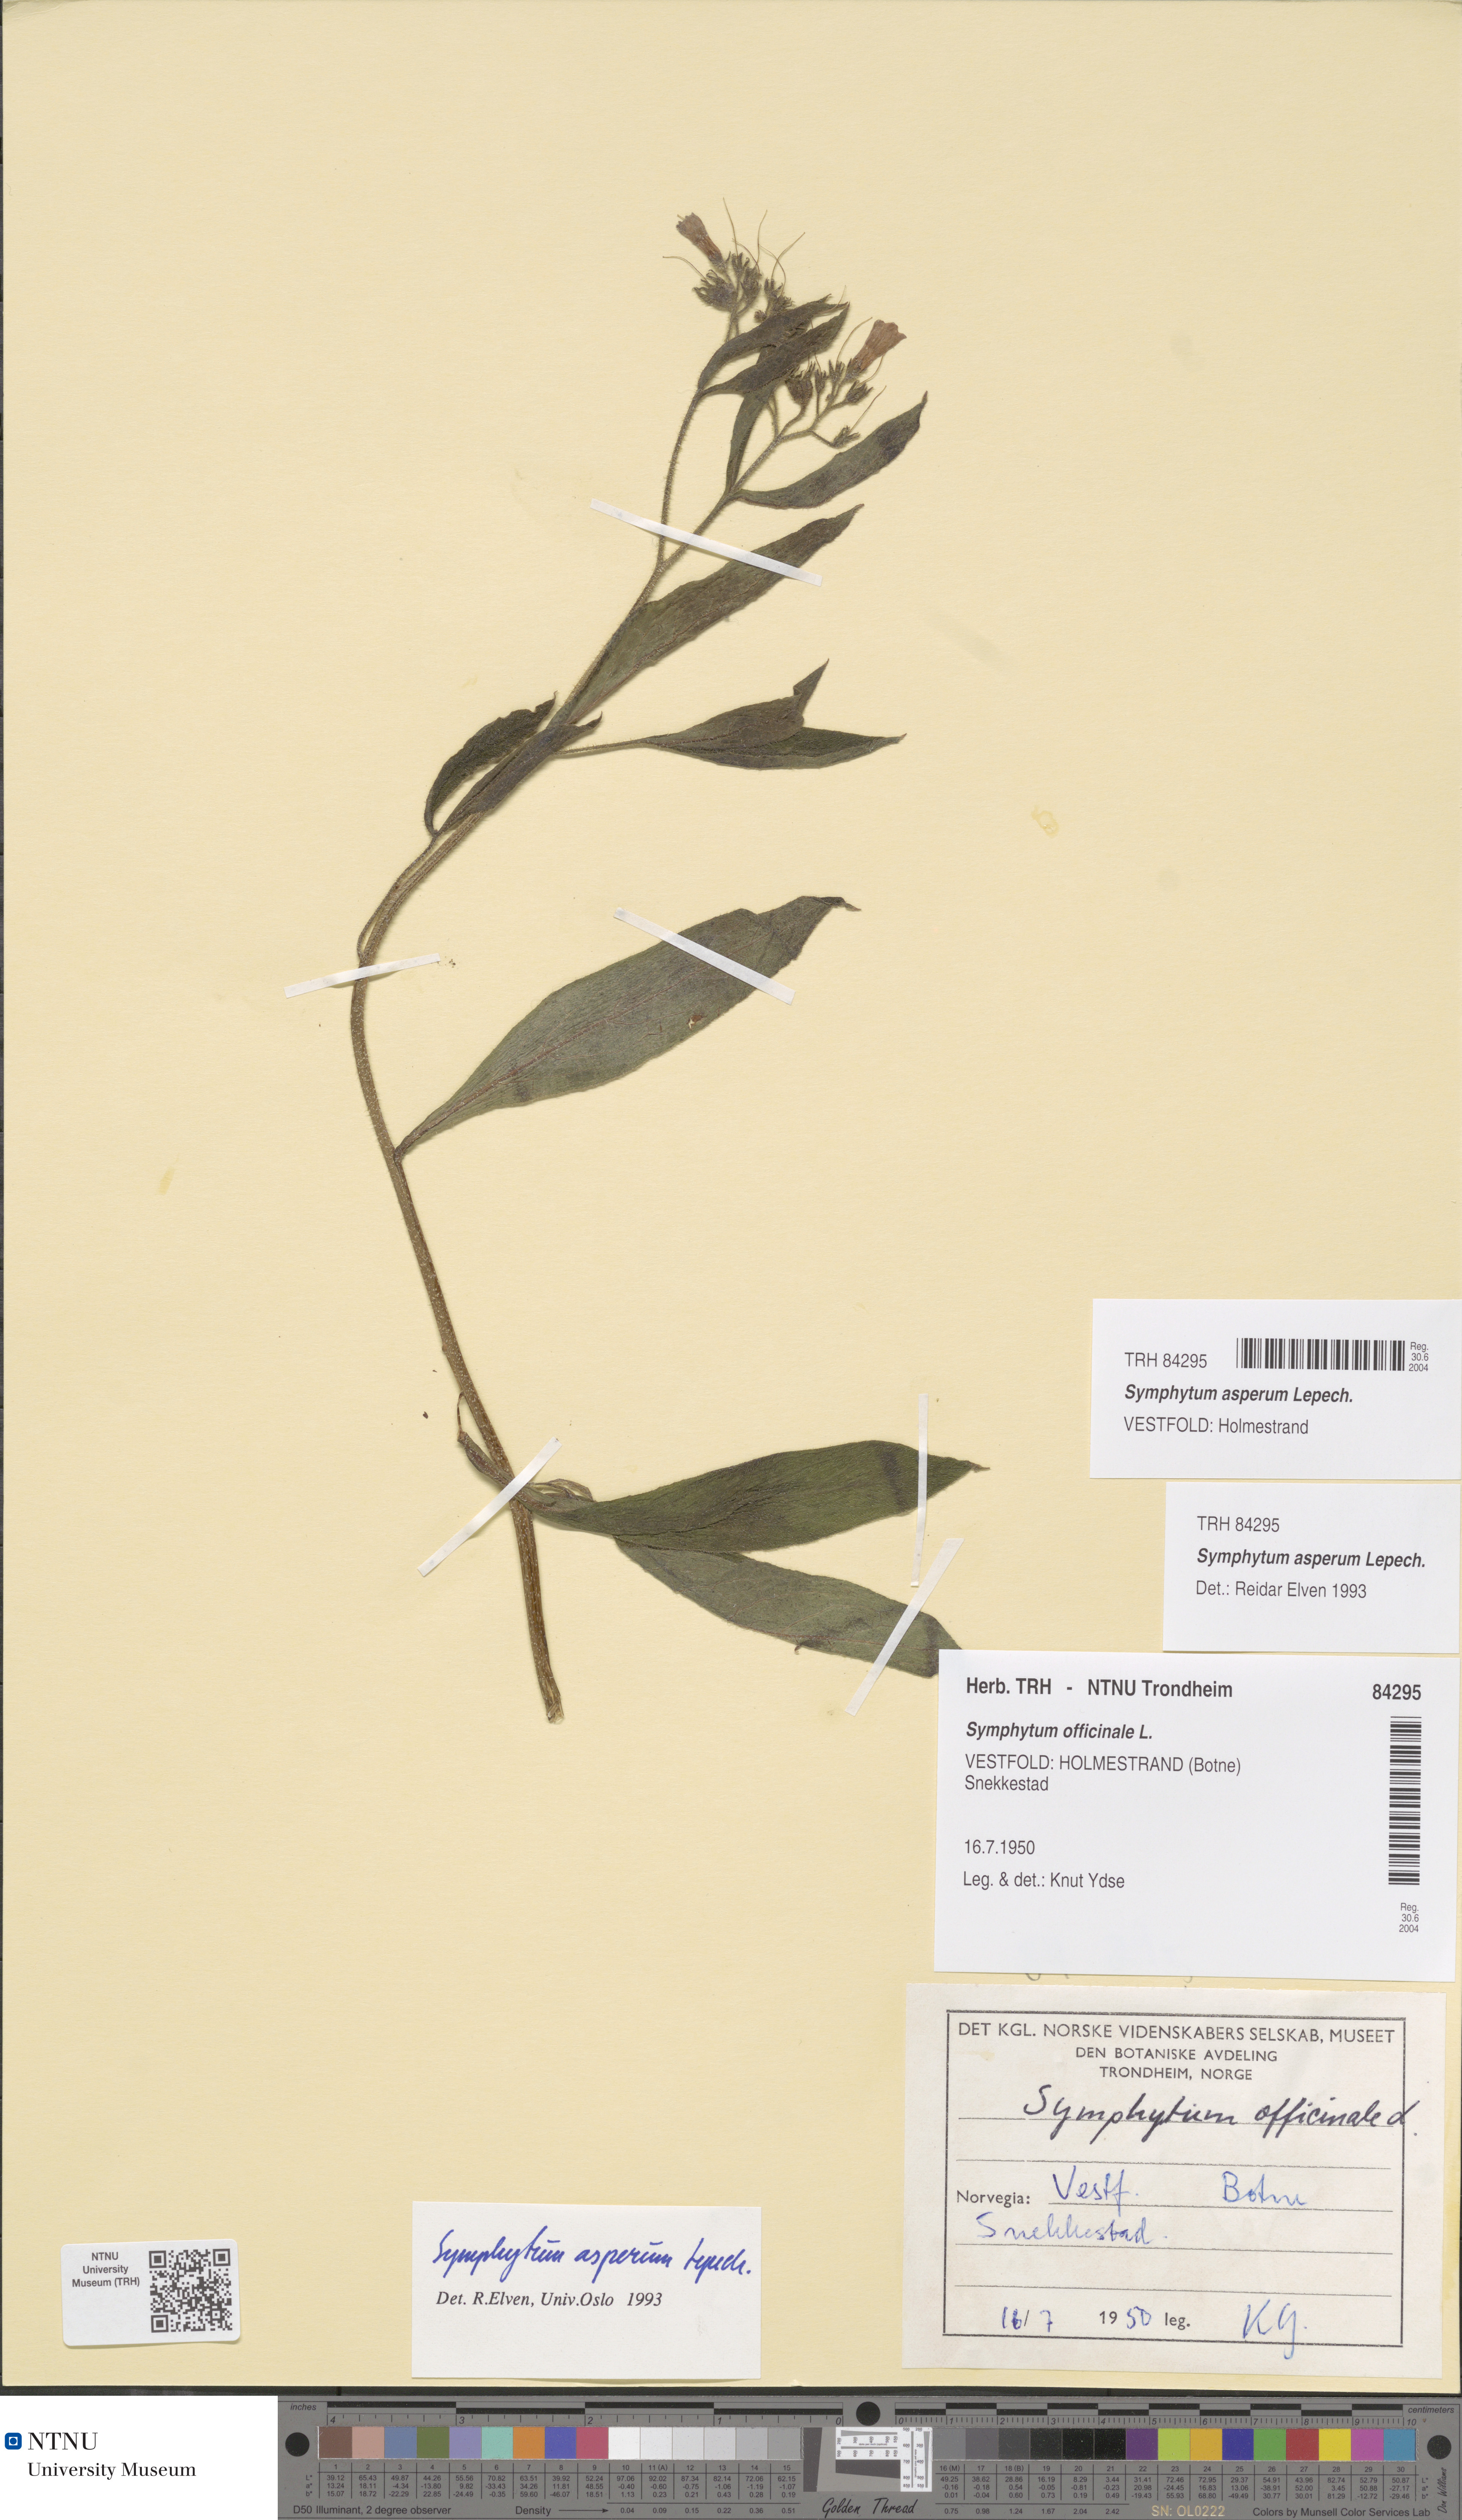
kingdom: Plantae
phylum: Tracheophyta
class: Magnoliopsida
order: Boraginales
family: Boraginaceae
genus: Symphytum
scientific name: Symphytum asperum
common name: Prickly comfrey
